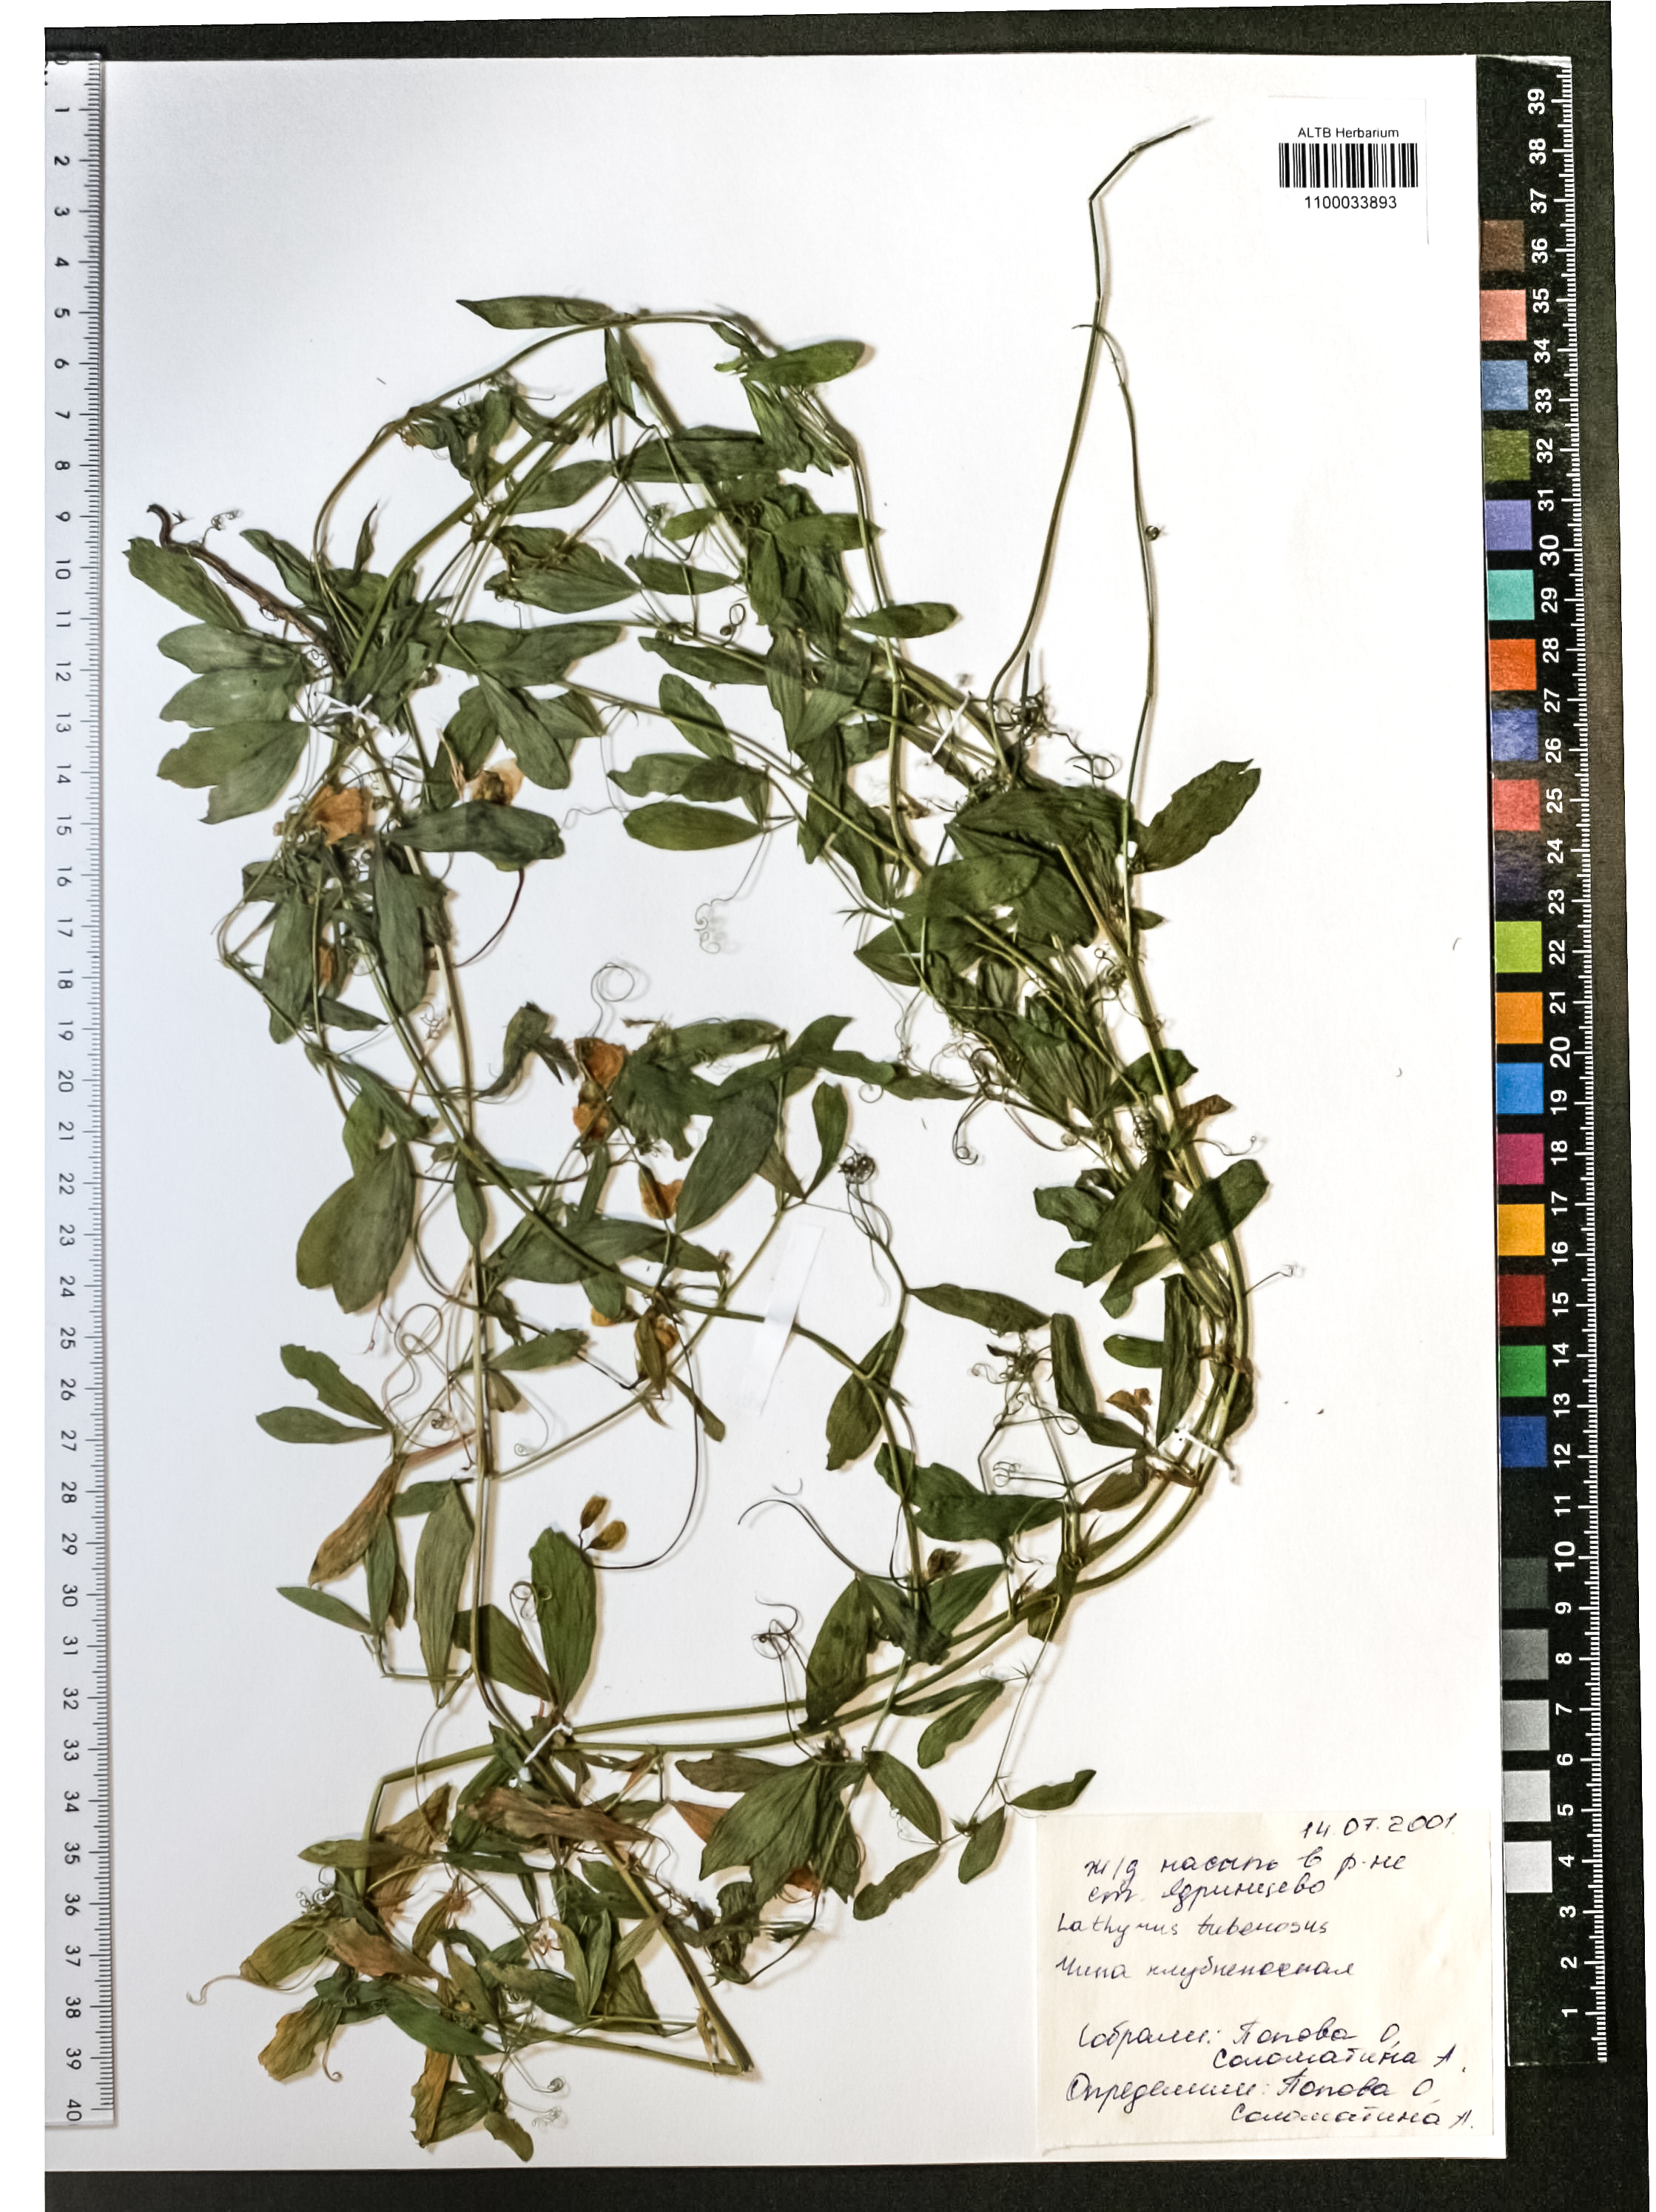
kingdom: Plantae
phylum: Tracheophyta
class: Magnoliopsida
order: Fabales
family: Fabaceae
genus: Lathyrus
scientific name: Lathyrus tuberosus
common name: Tuberous pea
